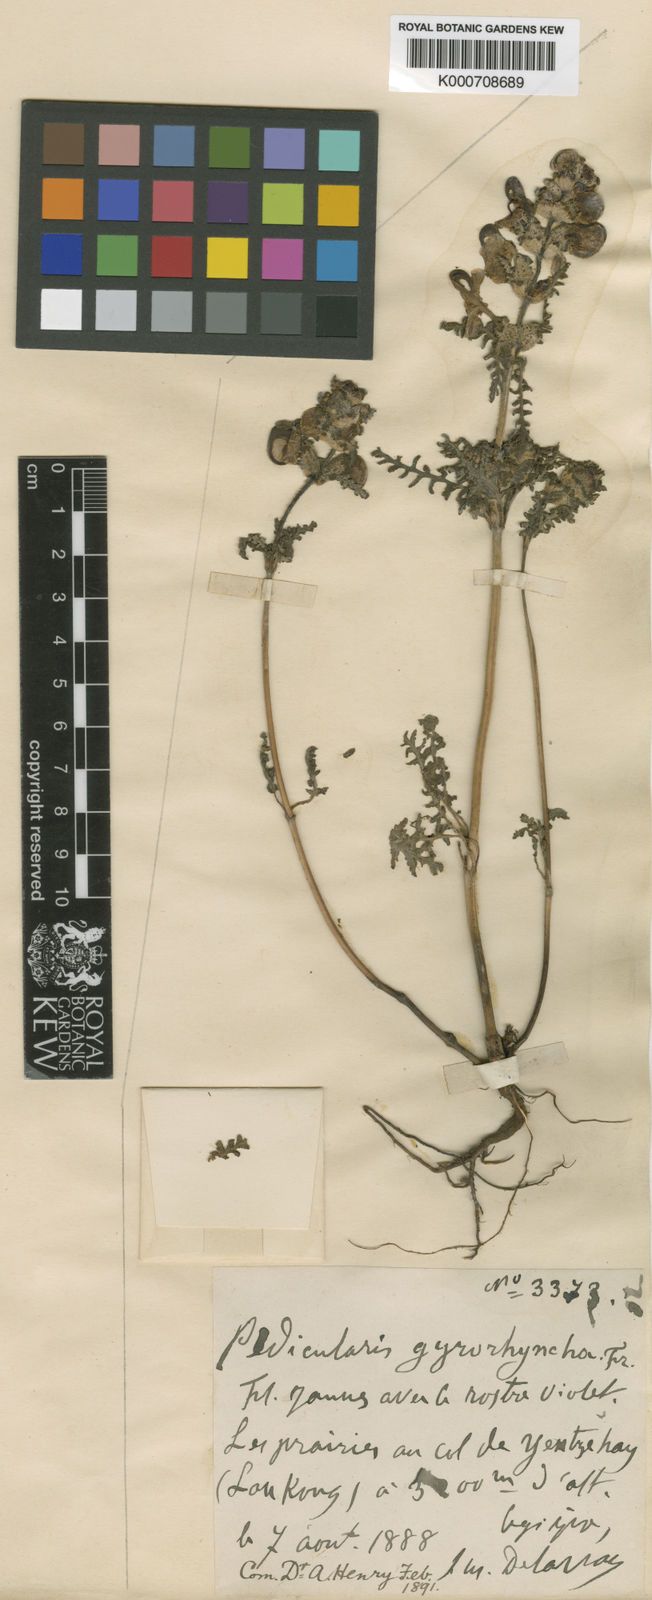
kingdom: Plantae
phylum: Tracheophyta
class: Magnoliopsida
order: Lamiales
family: Orobanchaceae
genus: Pedicularis
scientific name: Pedicularis gyrorhyncha
